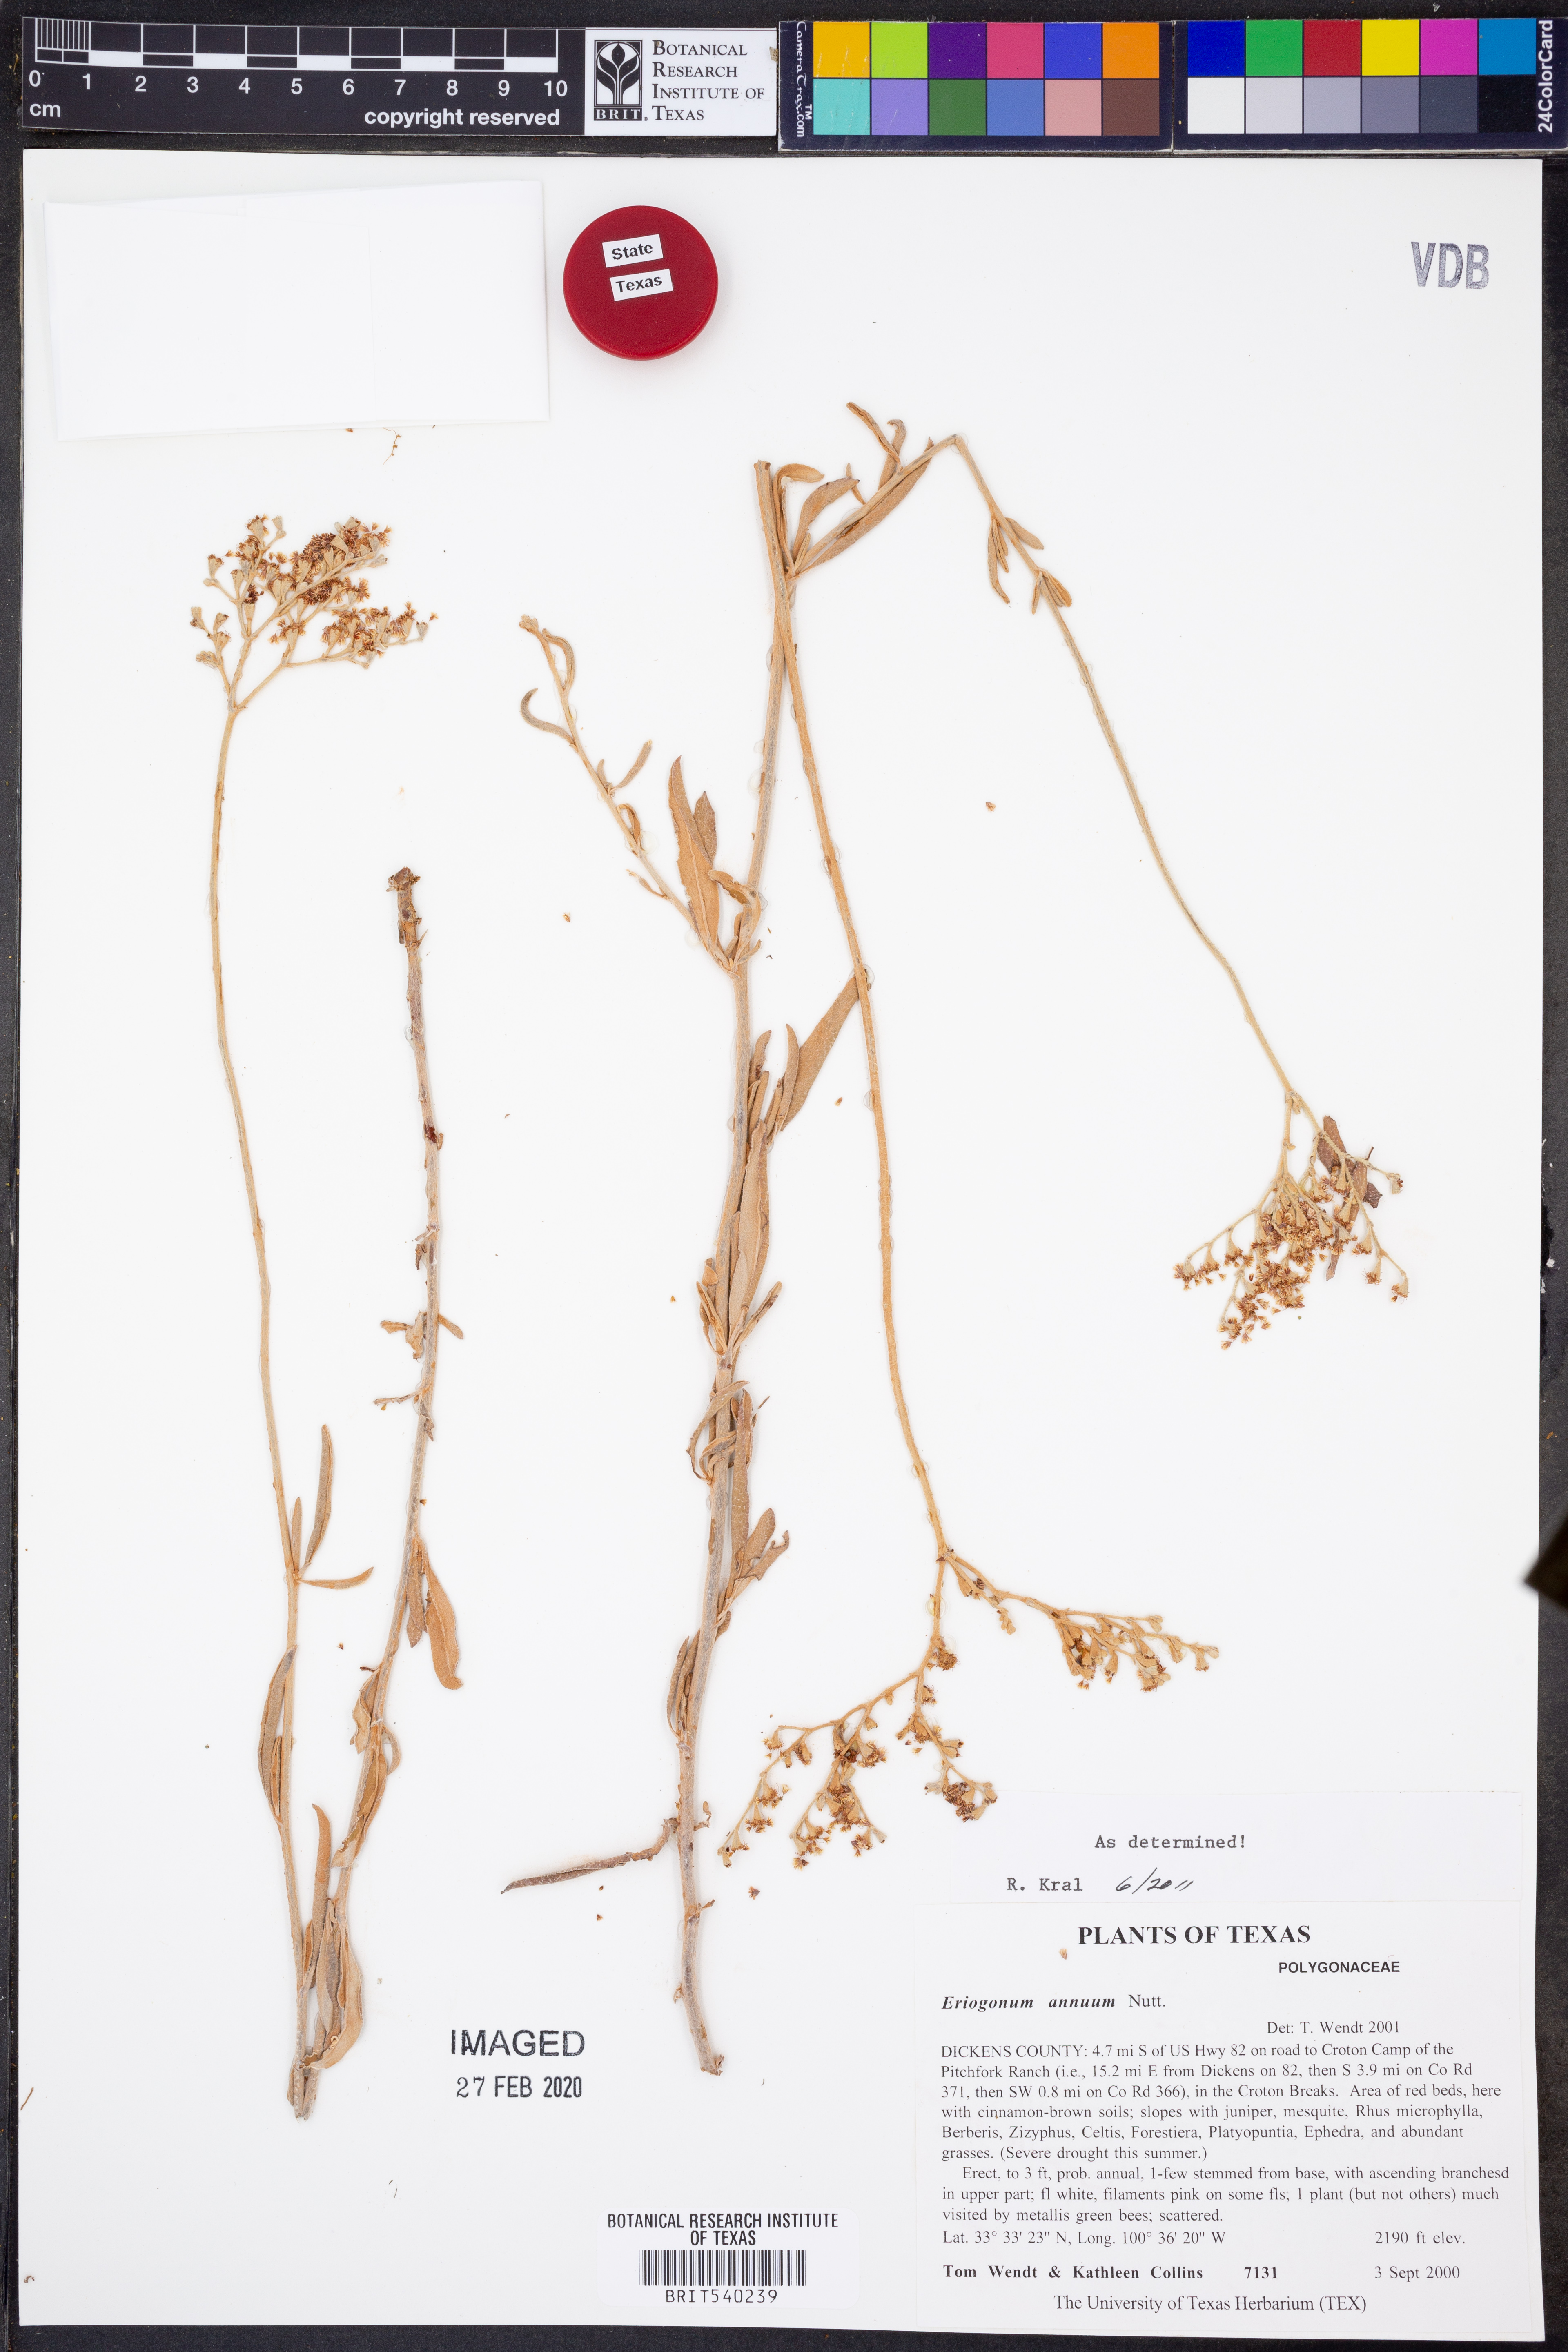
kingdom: Plantae
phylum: Tracheophyta
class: Magnoliopsida
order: Caryophyllales
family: Polygonaceae
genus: Eriogonum
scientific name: Eriogonum annuum
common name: Annual wild buckwheat
